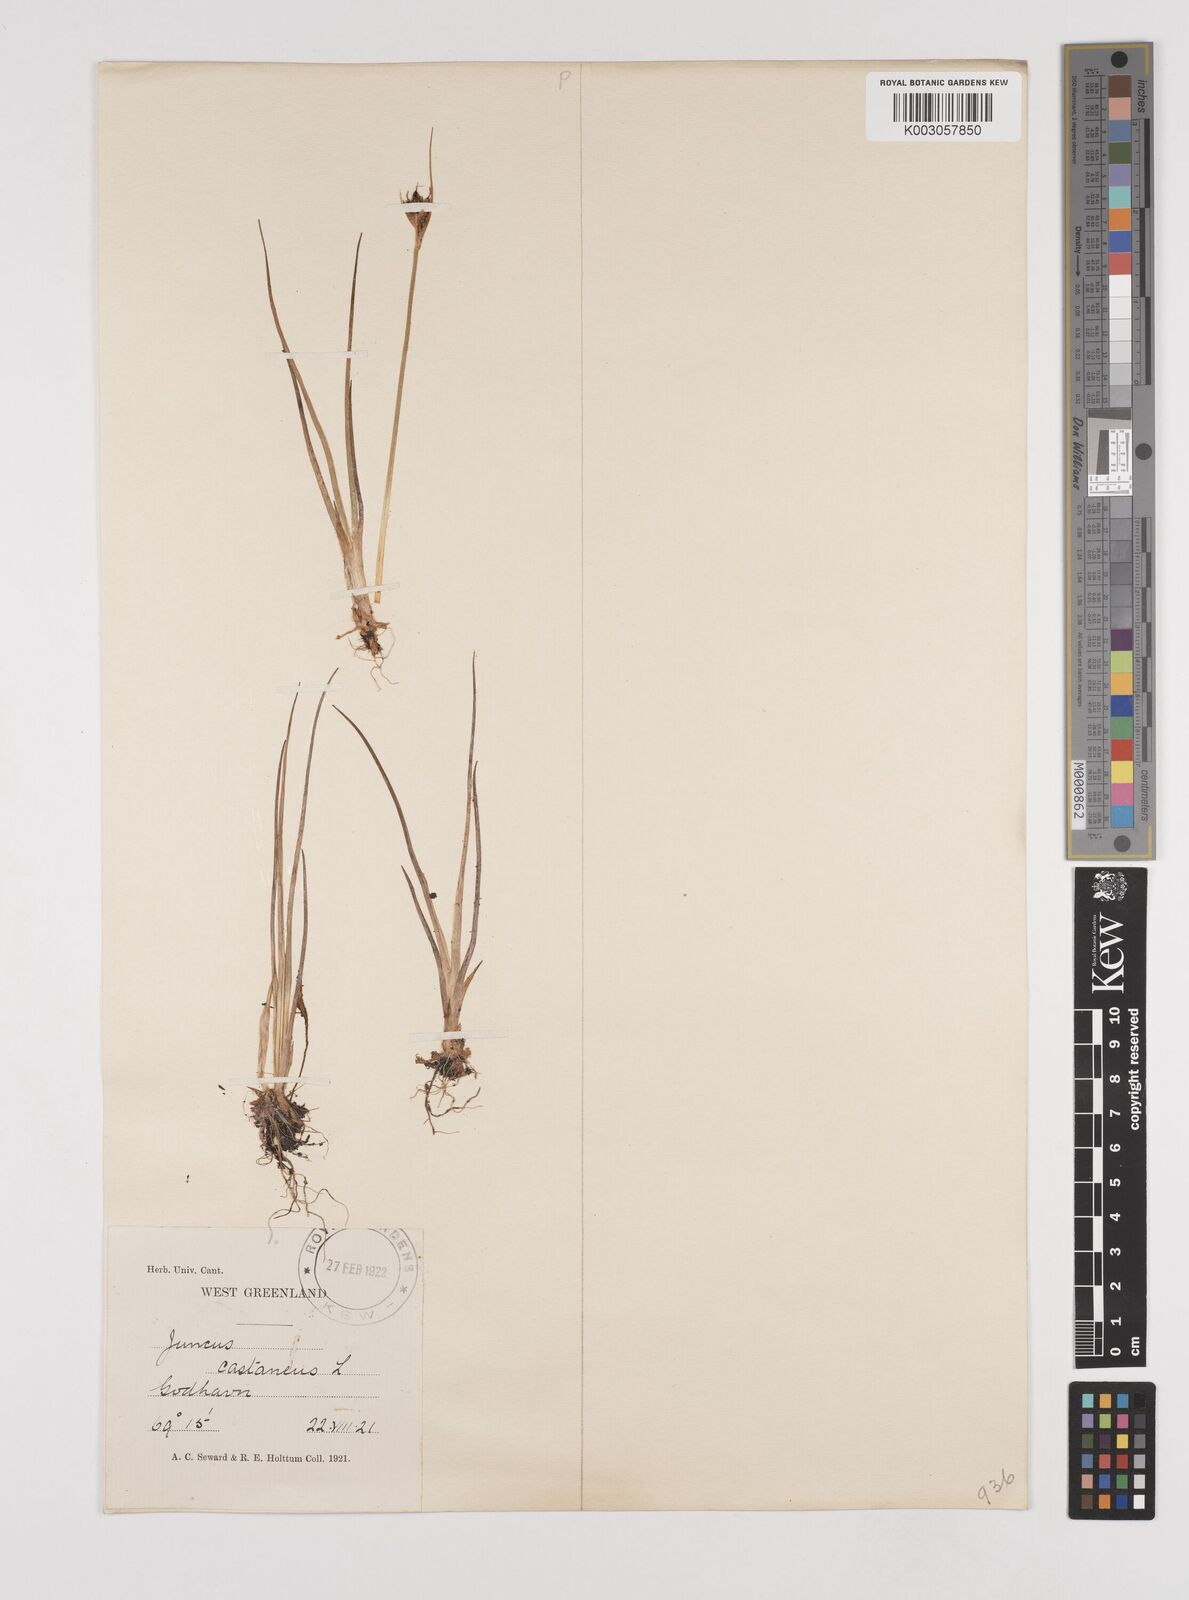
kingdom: Plantae
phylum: Tracheophyta
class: Liliopsida
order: Poales
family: Juncaceae
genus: Juncus
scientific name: Juncus castaneus
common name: Chestnut rush
